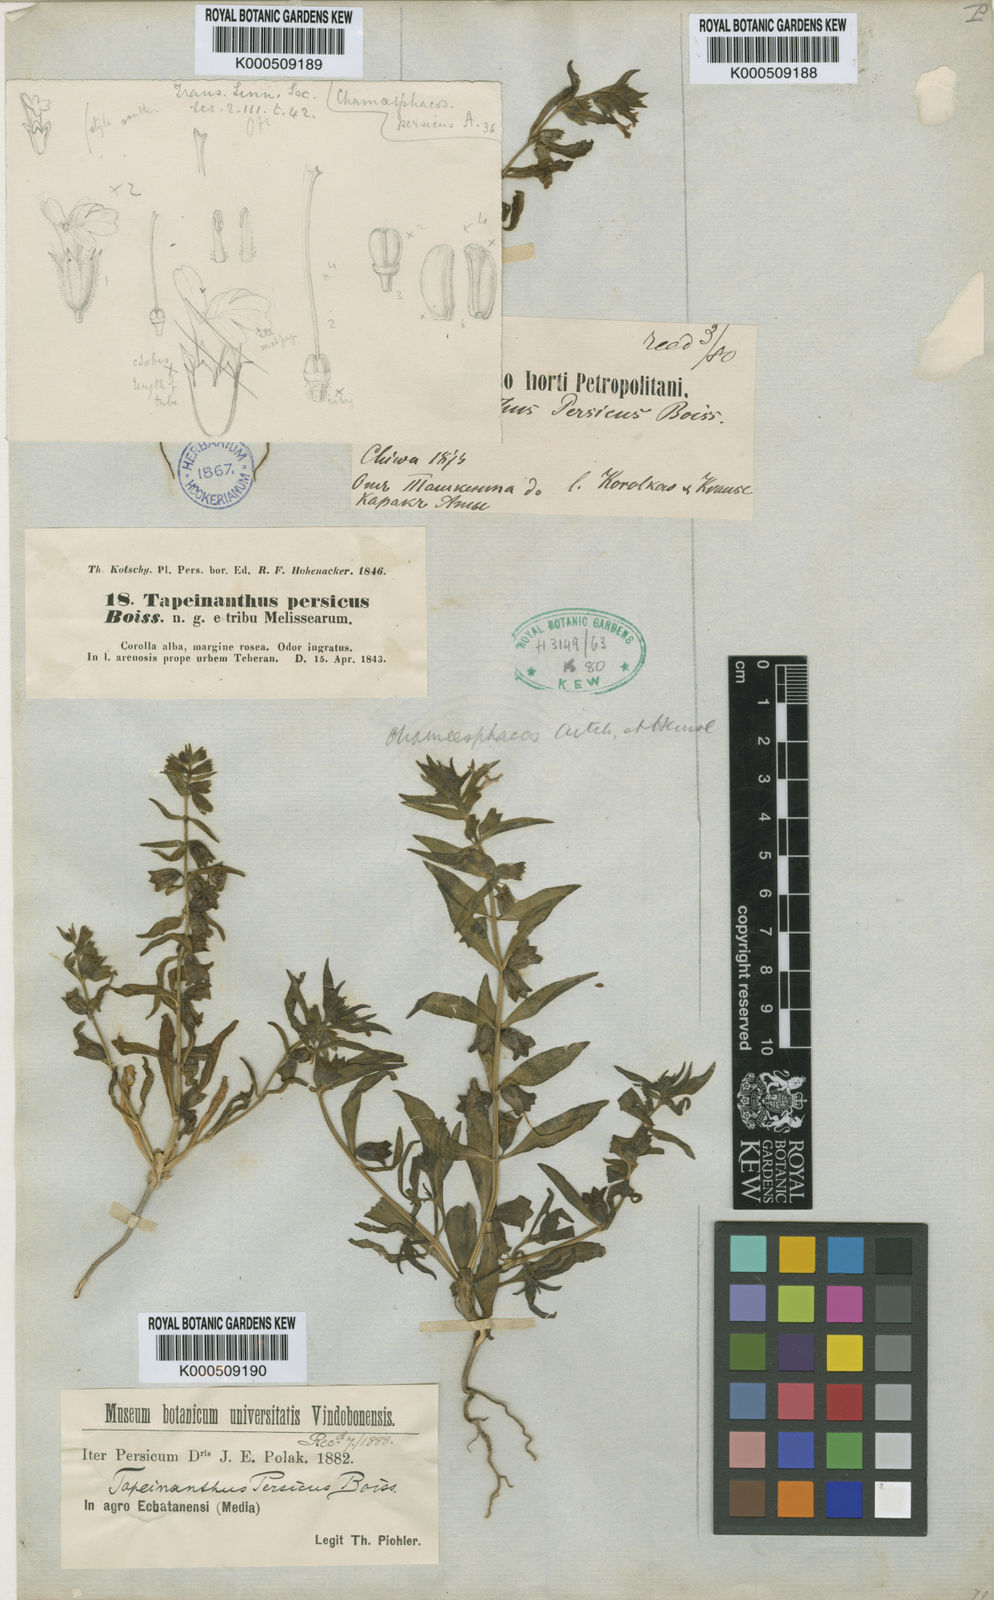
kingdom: Plantae
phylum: Tracheophyta
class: Magnoliopsida
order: Lamiales
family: Lamiaceae
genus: Thuspeinanta
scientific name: Thuspeinanta persica
